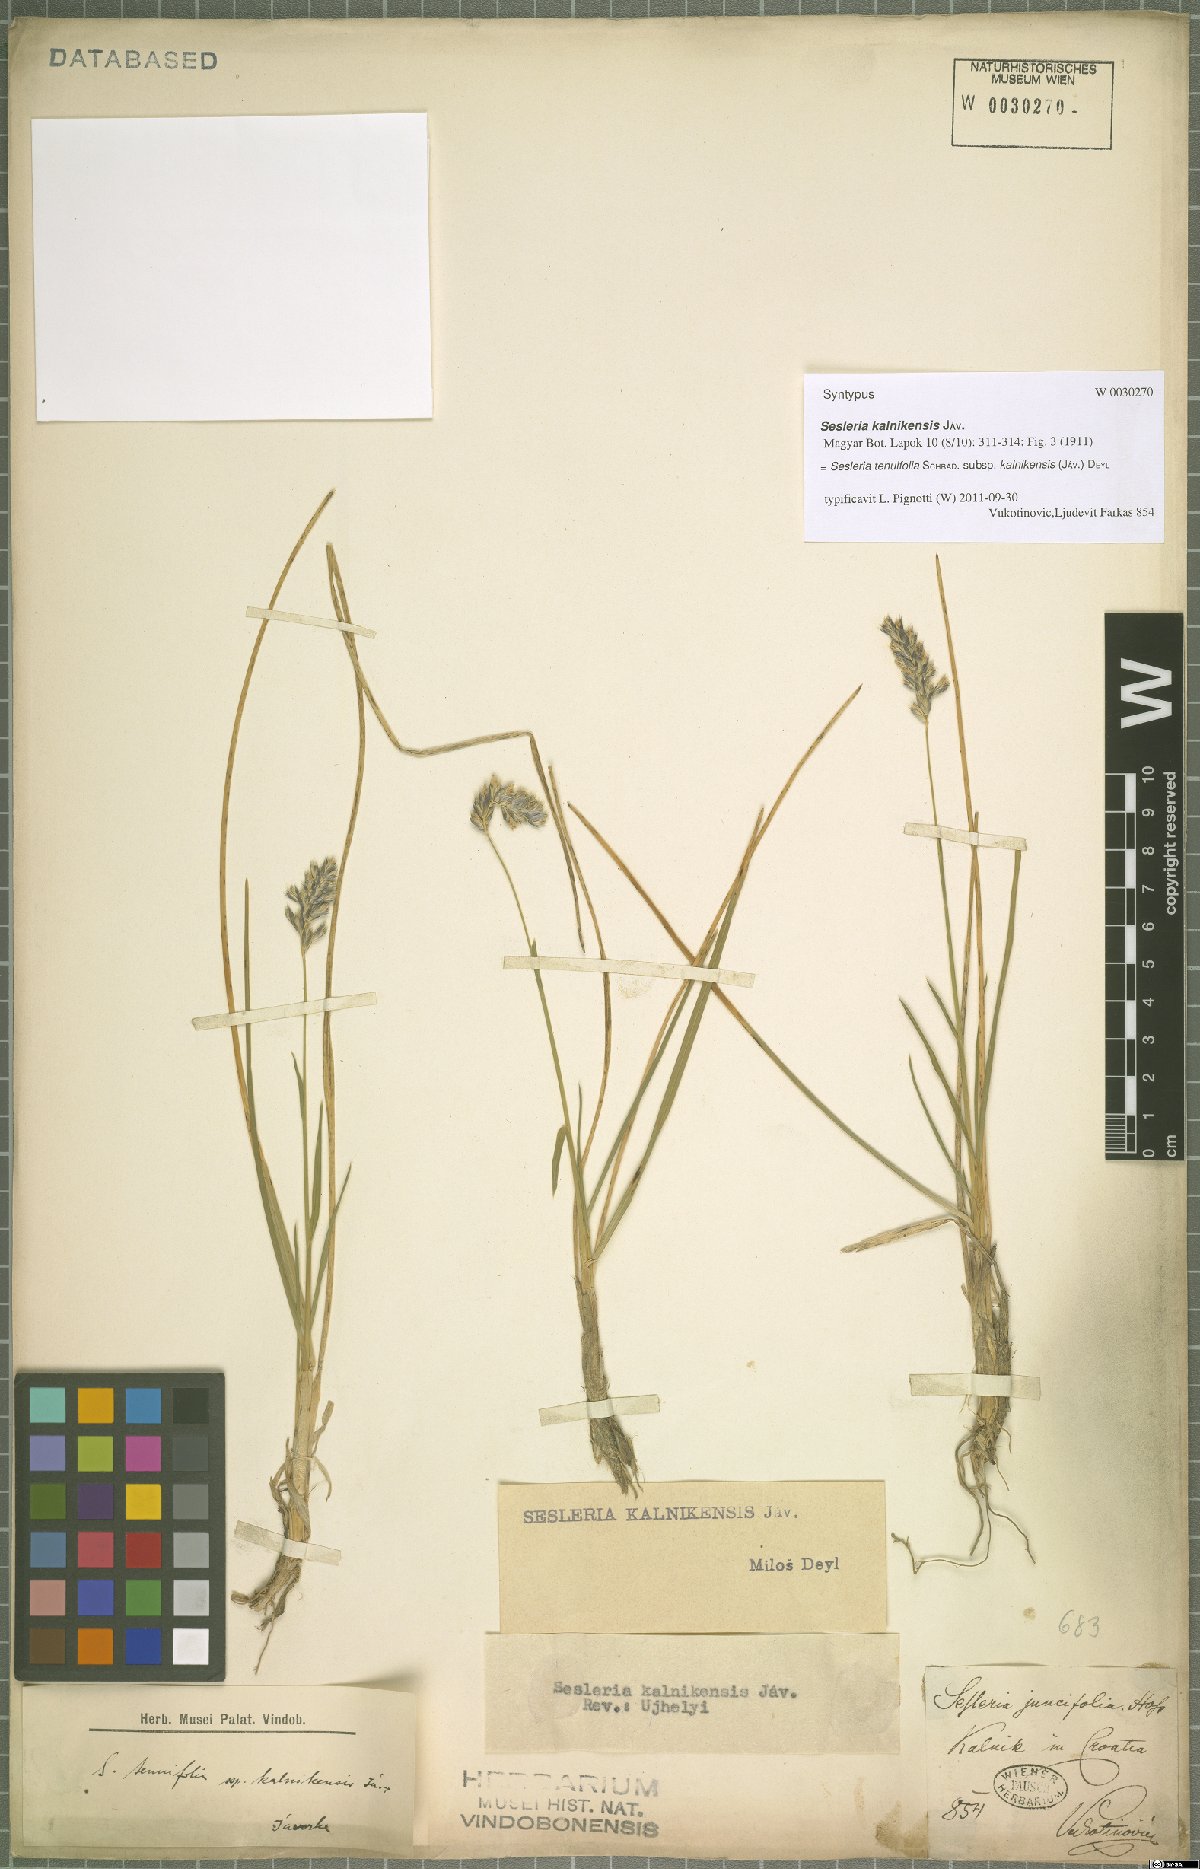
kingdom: Plantae
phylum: Tracheophyta
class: Liliopsida
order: Poales
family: Poaceae
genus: Sesleria
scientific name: Sesleria juncifolia
